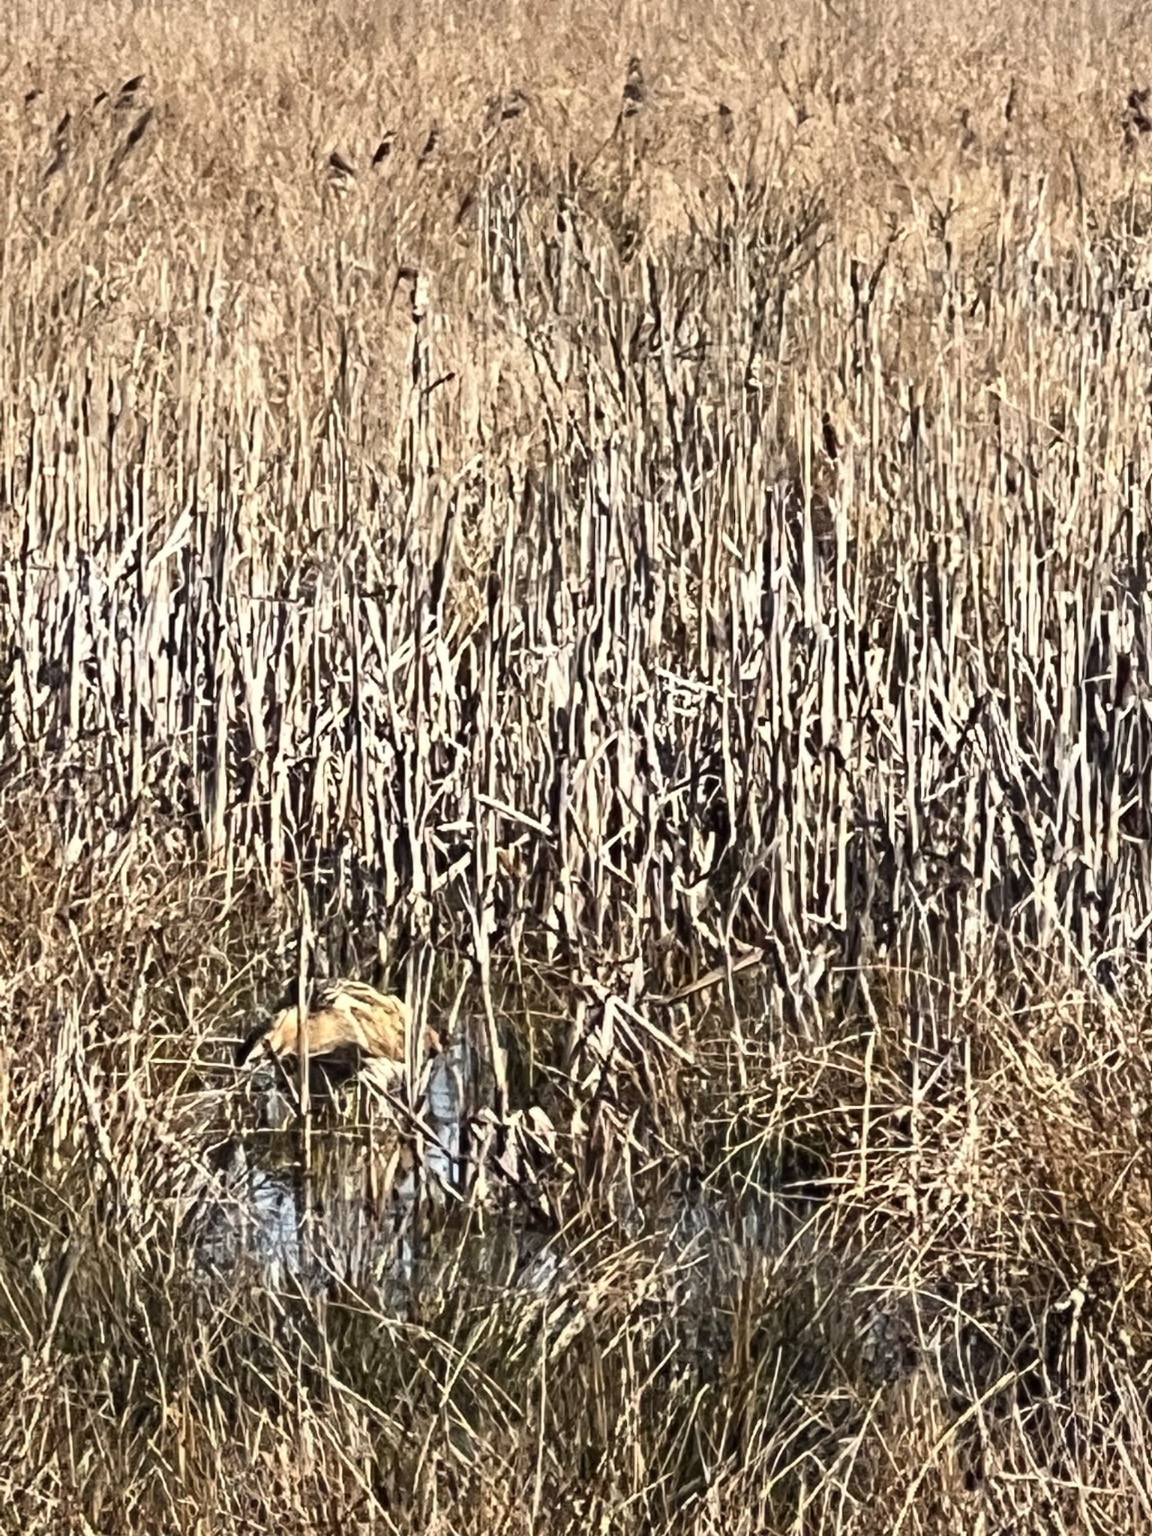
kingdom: Animalia
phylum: Chordata
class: Aves
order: Pelecaniformes
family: Ardeidae
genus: Botaurus
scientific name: Botaurus stellaris
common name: Rørdrum
